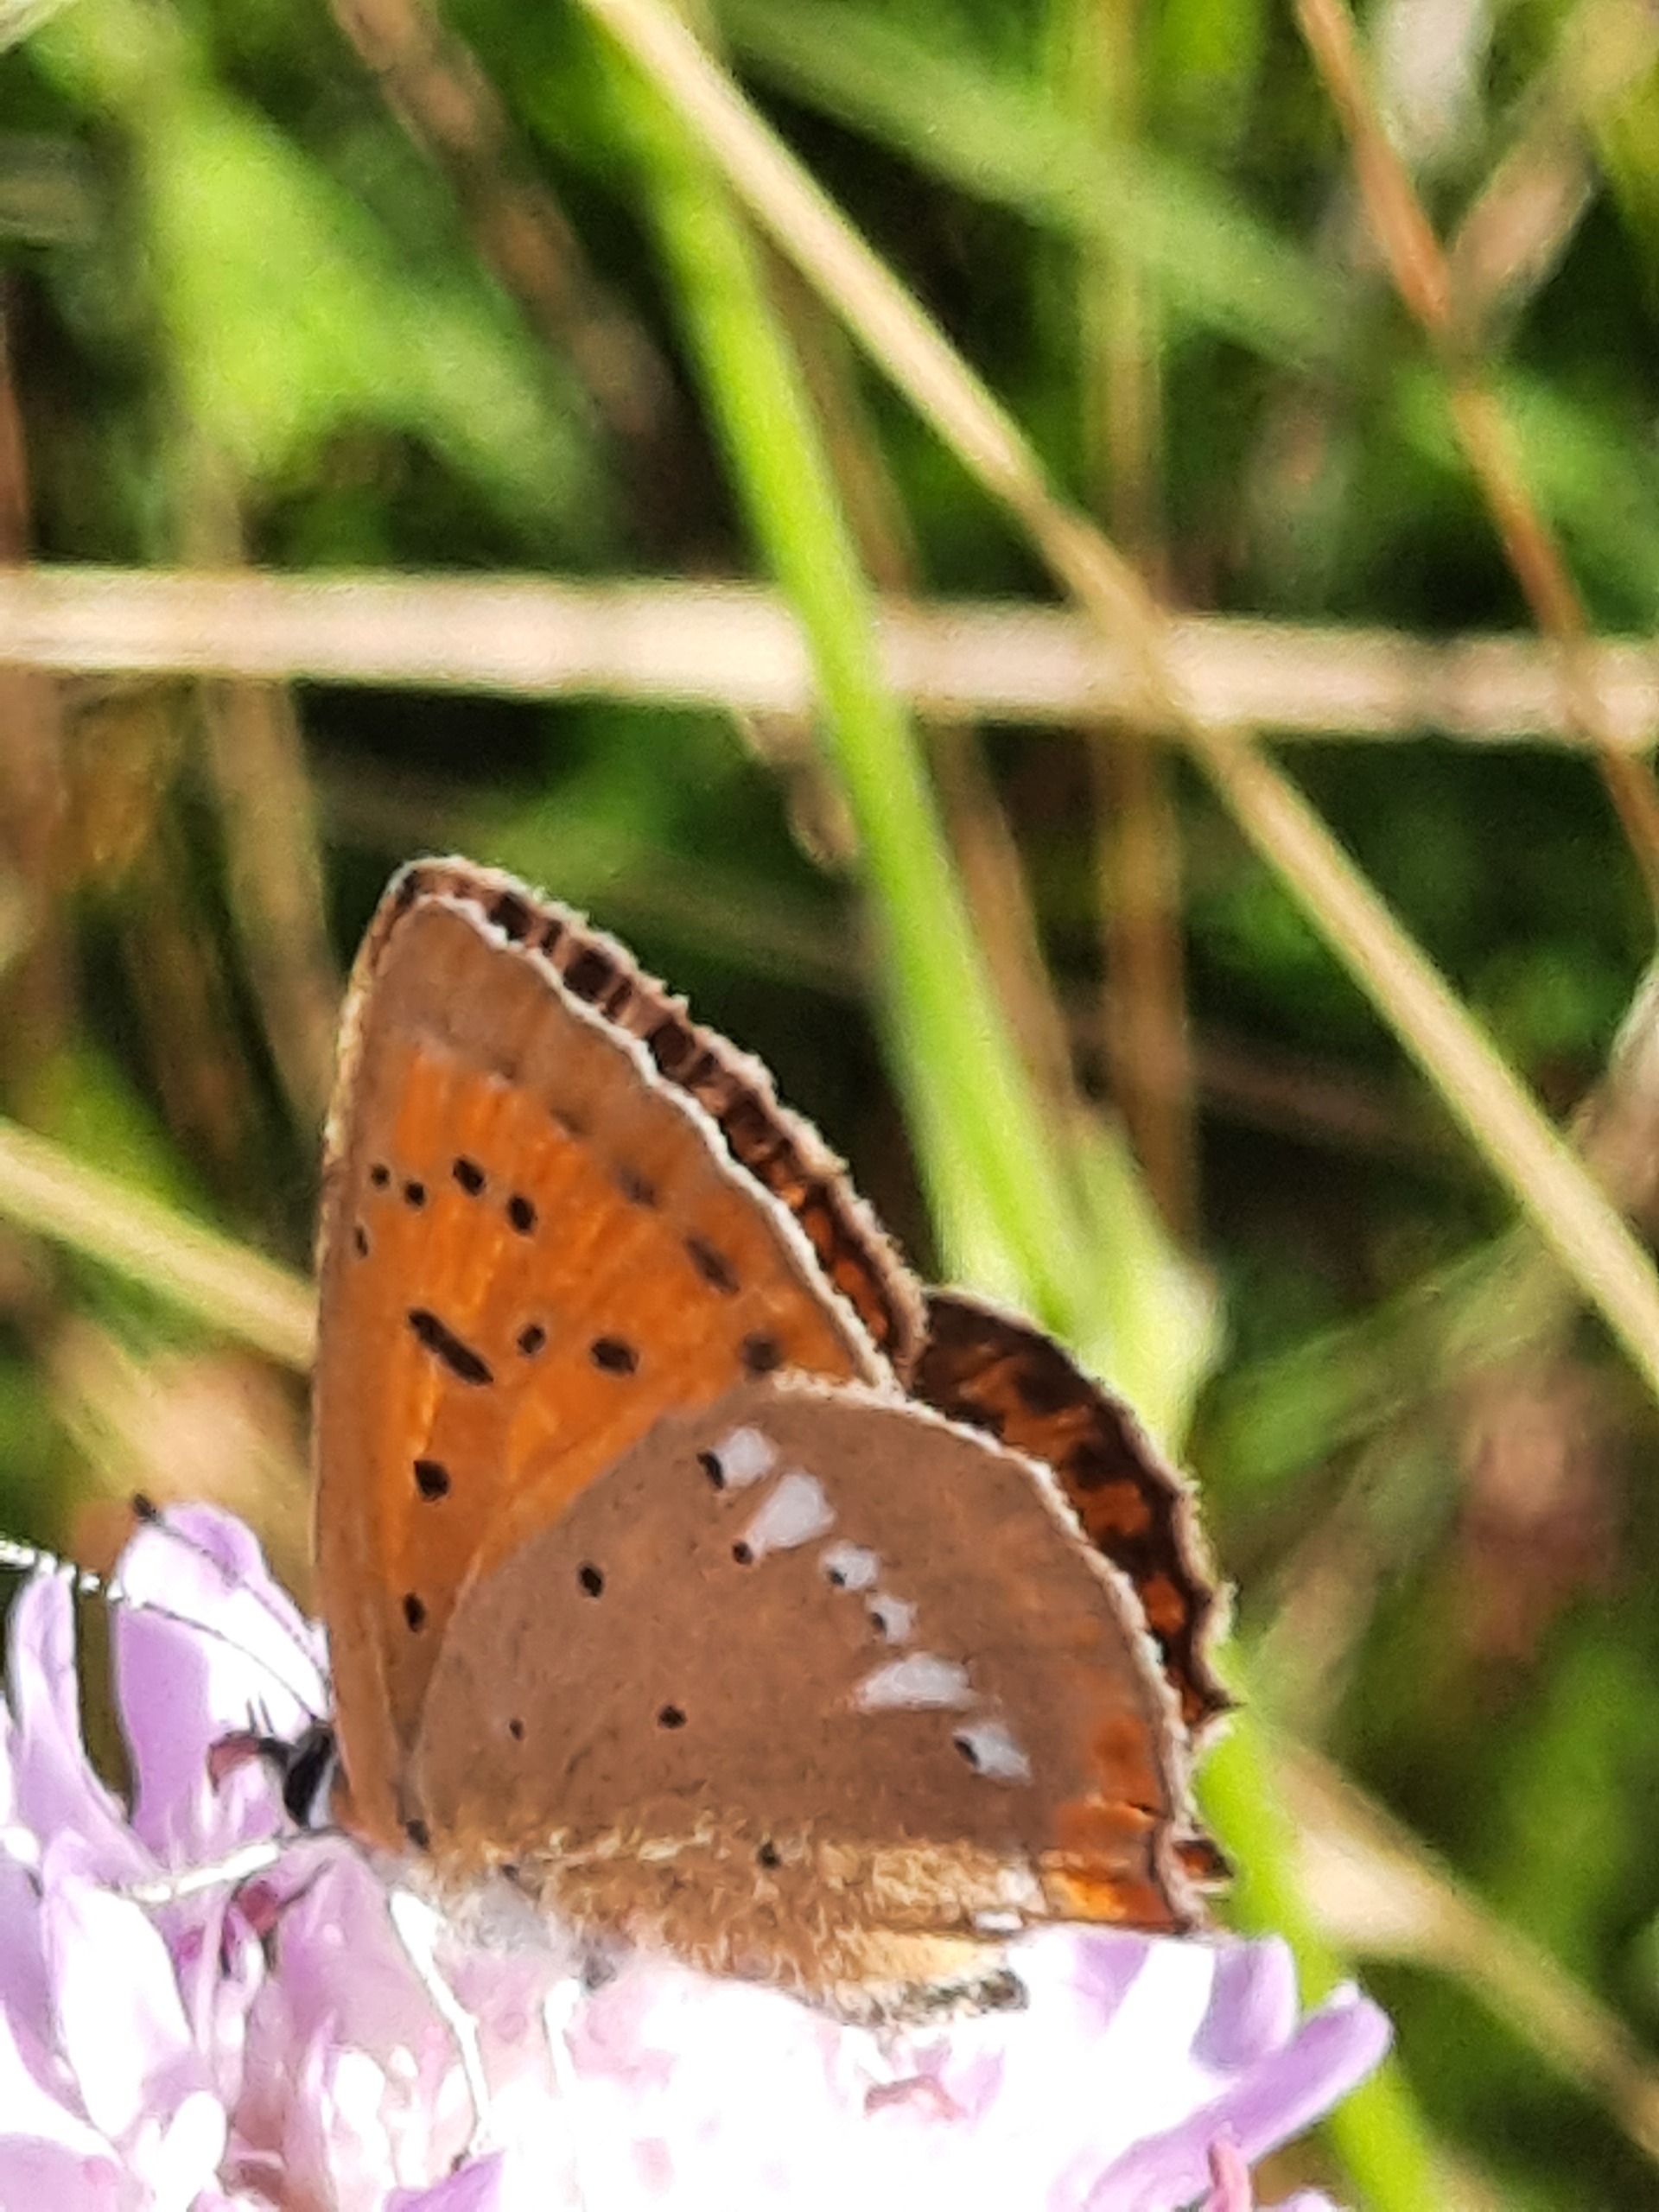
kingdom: Animalia
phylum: Arthropoda
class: Insecta
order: Lepidoptera
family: Lycaenidae
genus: Lycaena
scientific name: Lycaena virgaureae
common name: Dukatsommerfugl
